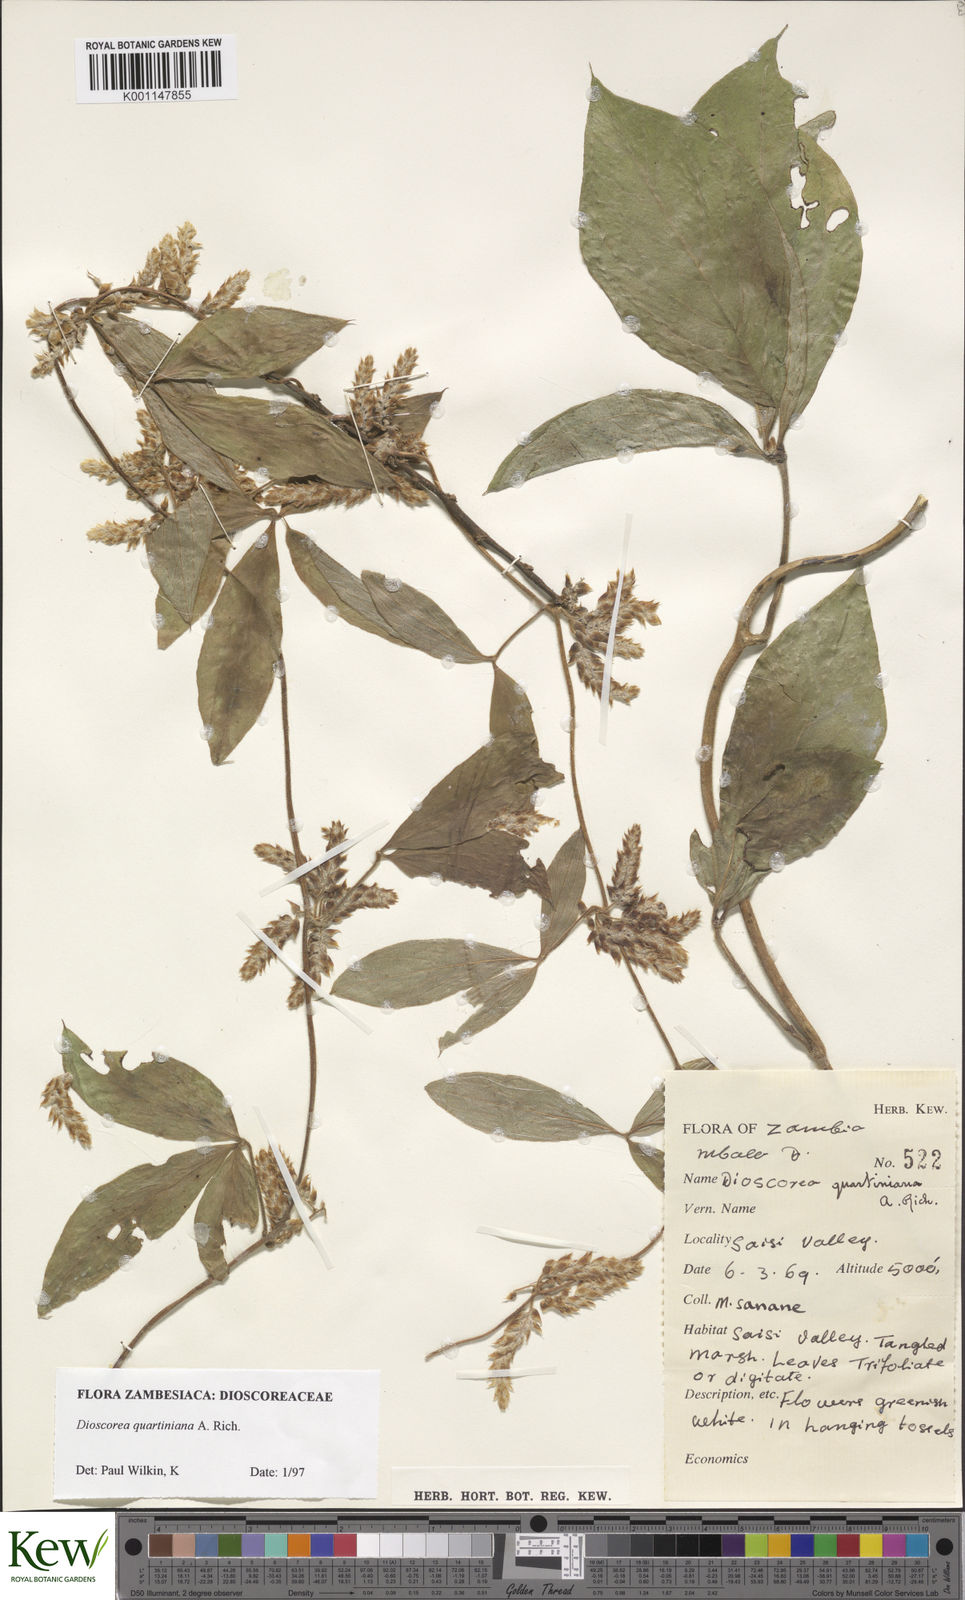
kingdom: Plantae
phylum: Tracheophyta
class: Liliopsida
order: Dioscoreales
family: Dioscoreaceae
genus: Dioscorea
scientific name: Dioscorea quartiniana
